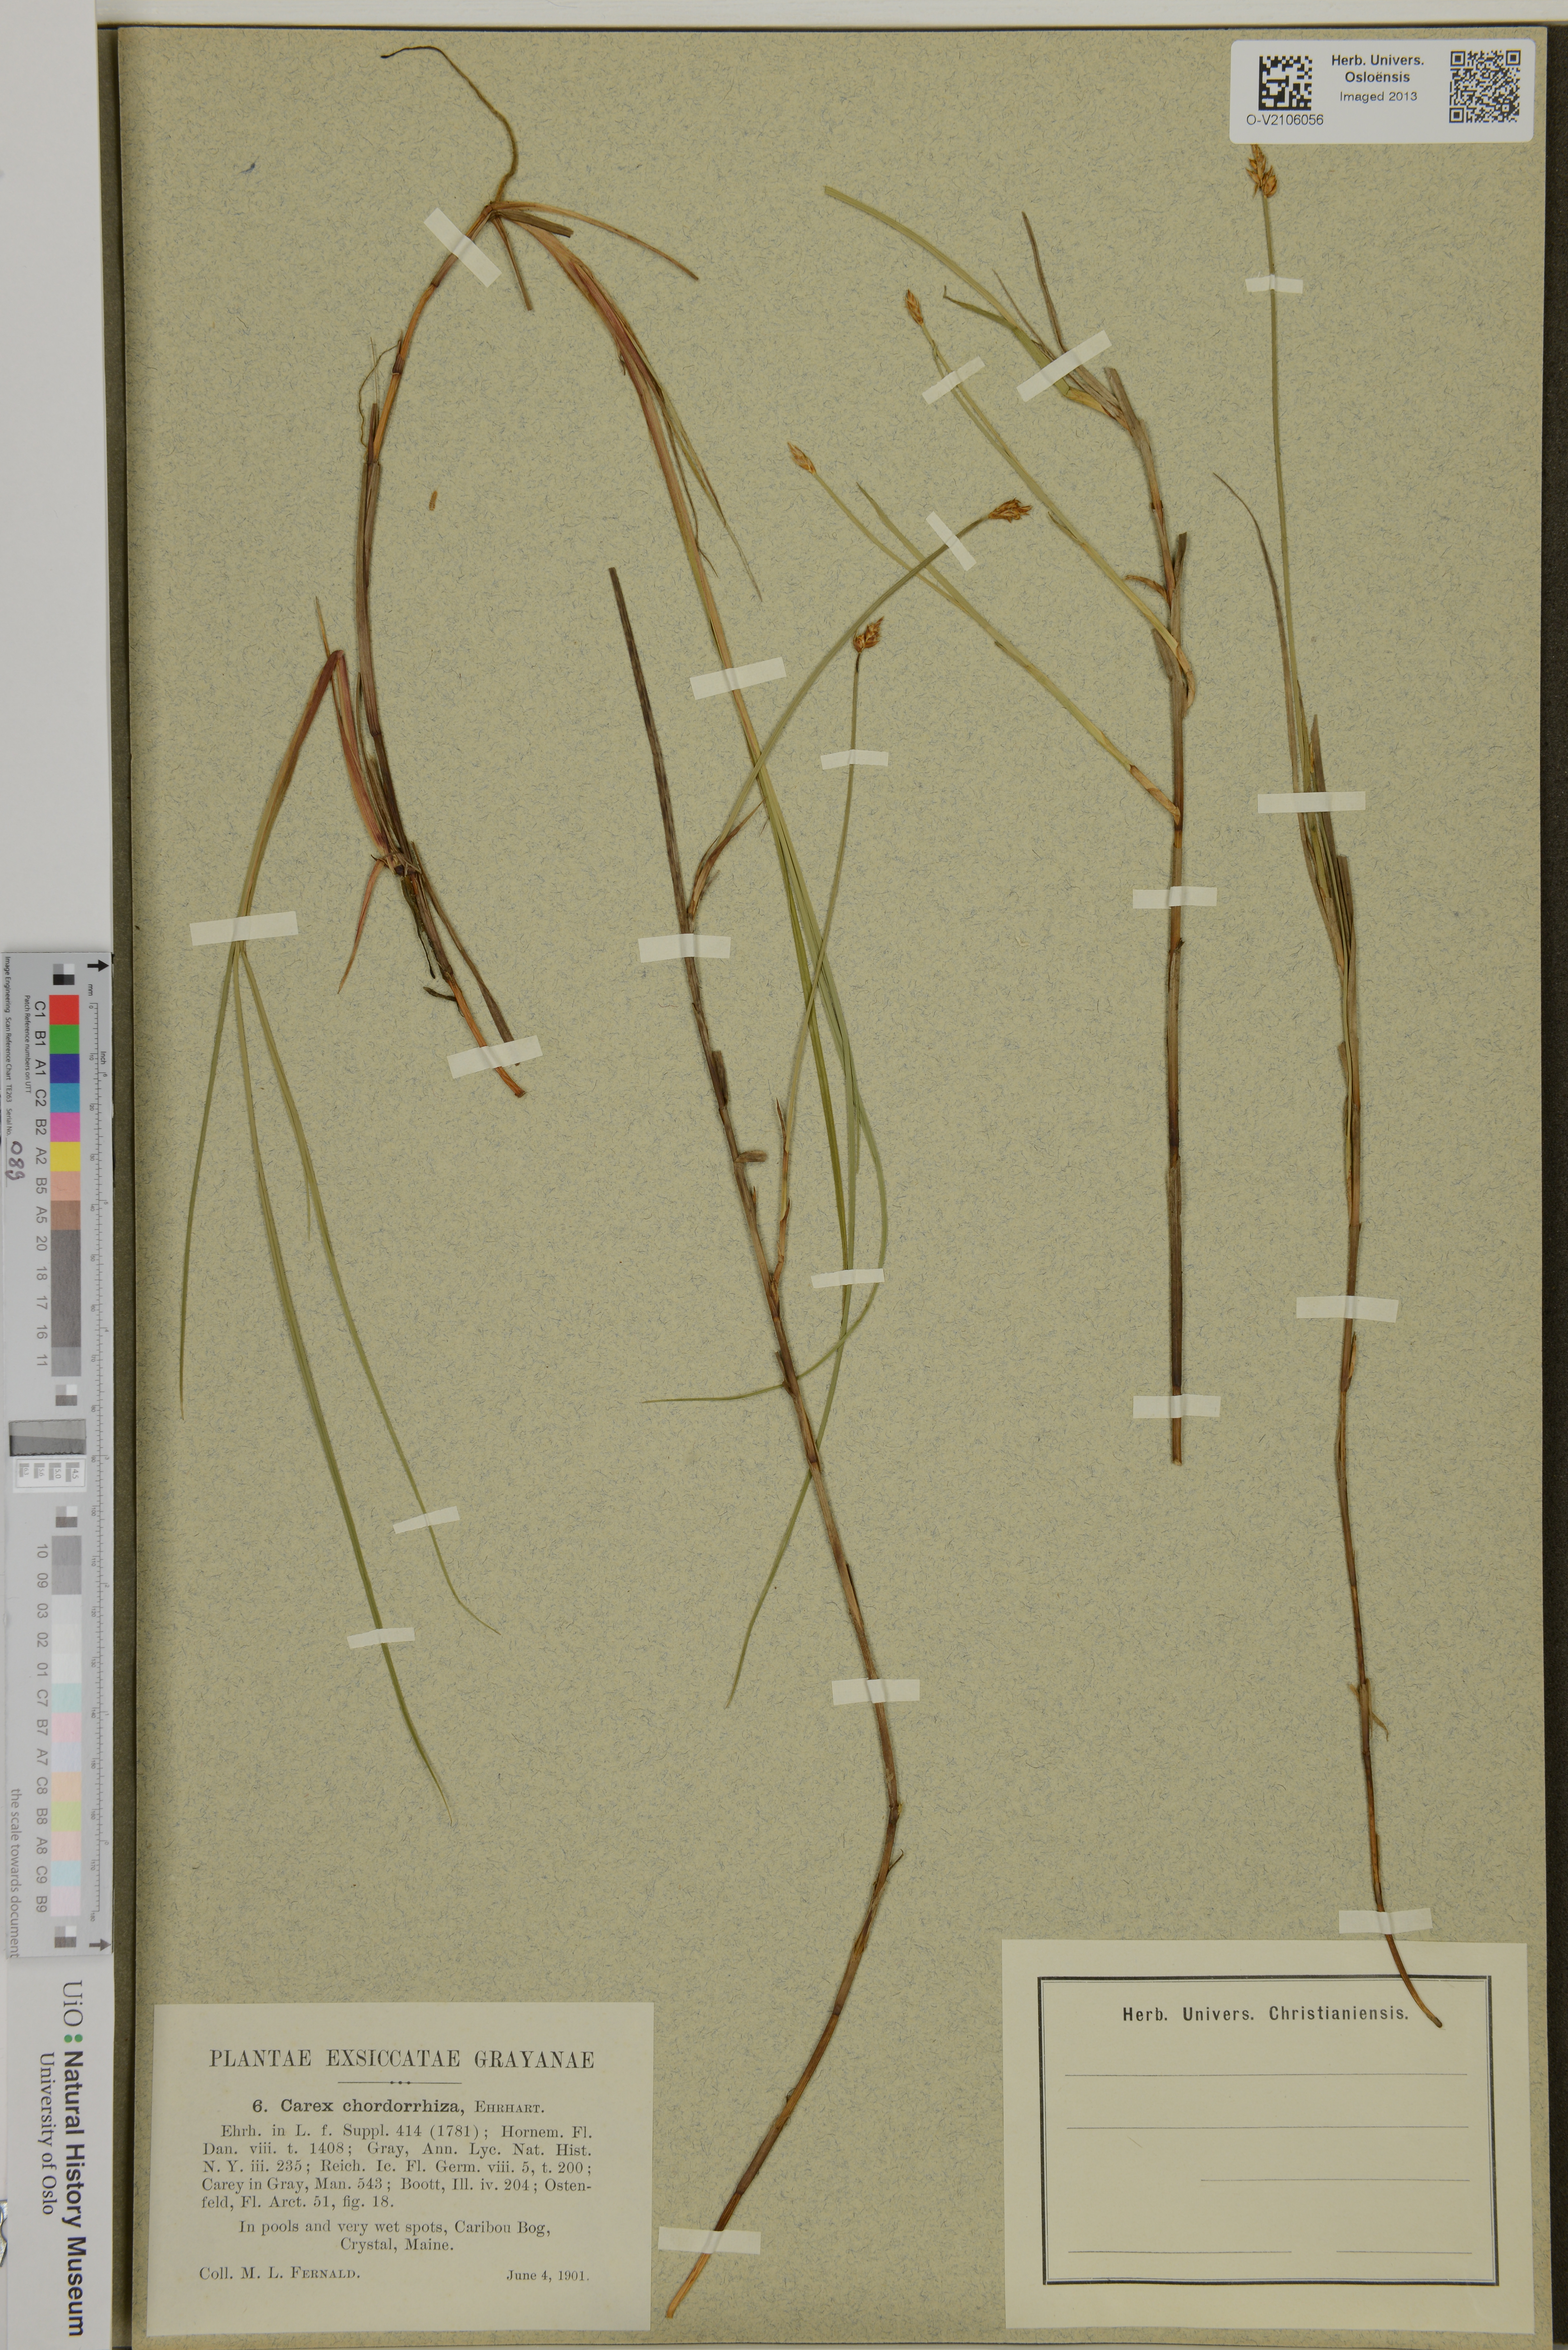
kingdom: Plantae
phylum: Tracheophyta
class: Liliopsida
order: Poales
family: Cyperaceae
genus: Carex
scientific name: Carex chordorrhiza
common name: String sedge
